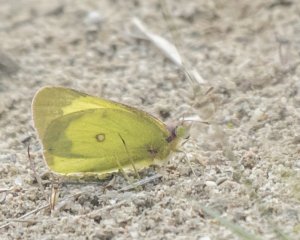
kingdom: Animalia
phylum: Arthropoda
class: Insecta
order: Lepidoptera
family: Pieridae
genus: Colias
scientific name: Colias interior
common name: Pink-edged Sulphur
